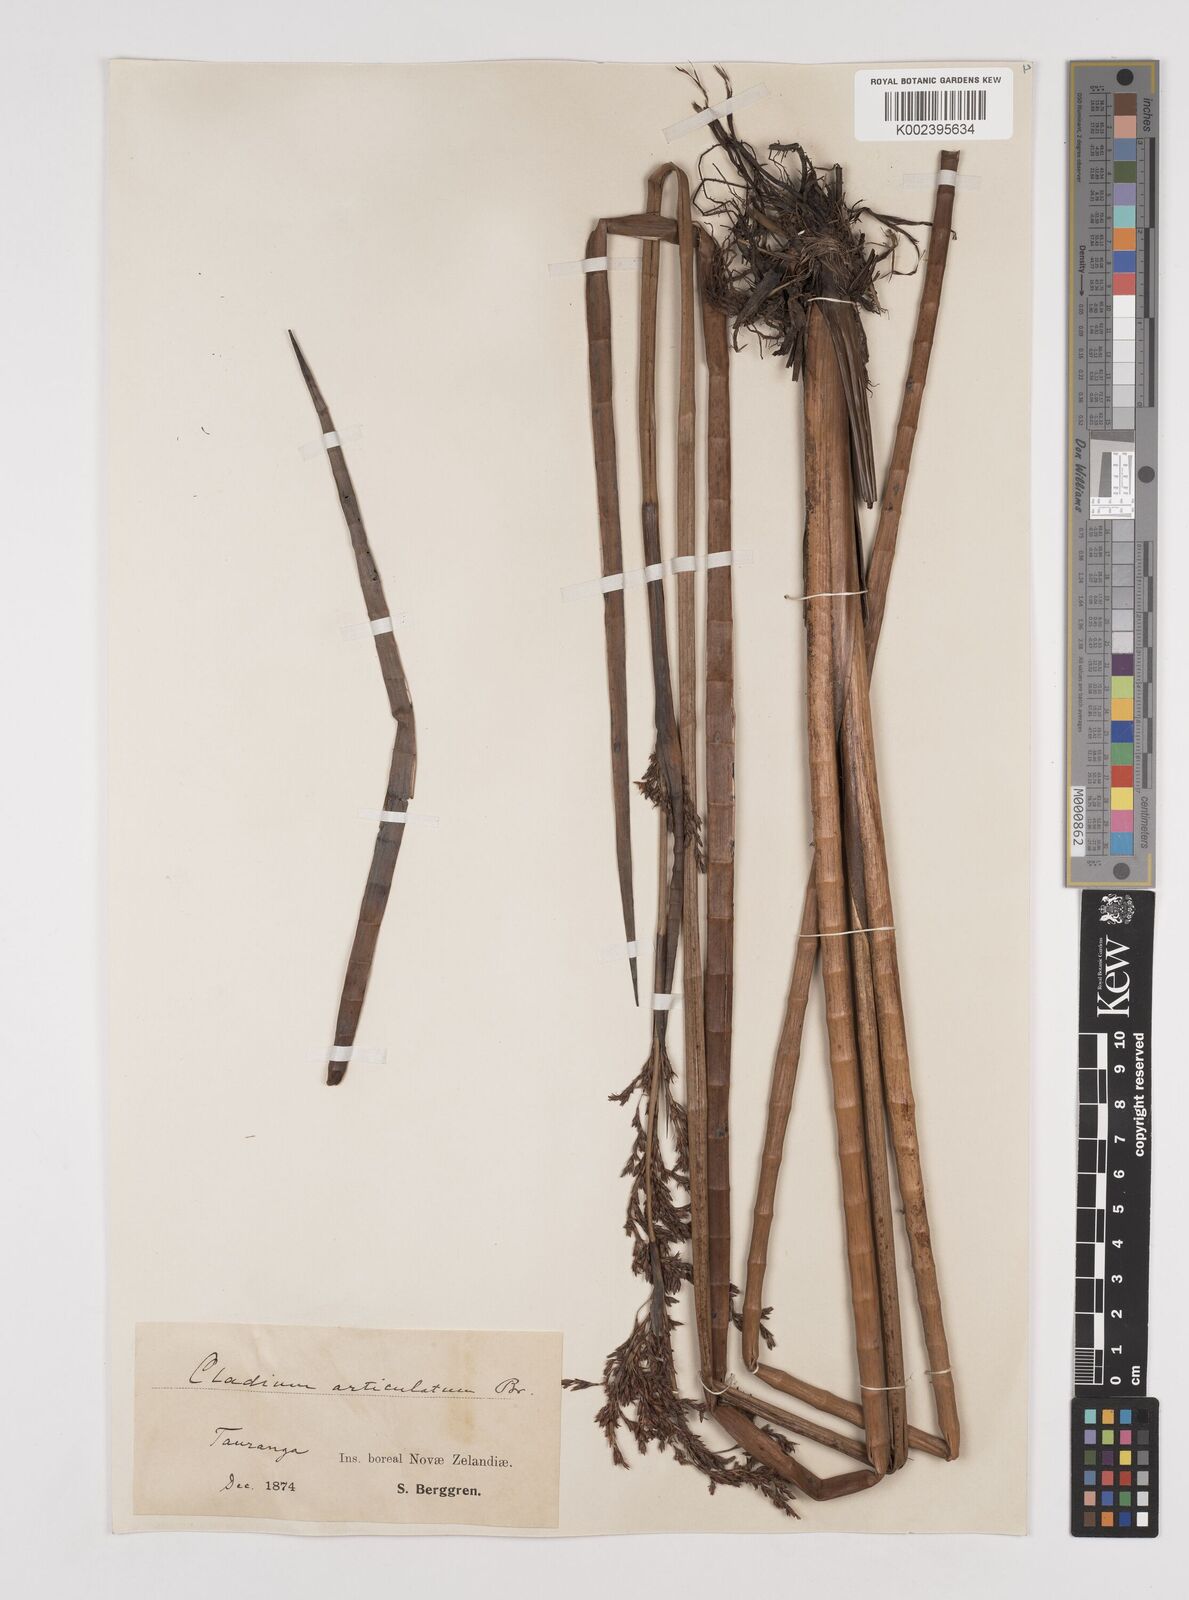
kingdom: Plantae
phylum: Tracheophyta
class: Liliopsida
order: Poales
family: Cyperaceae
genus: Machaerina
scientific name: Machaerina articulata
